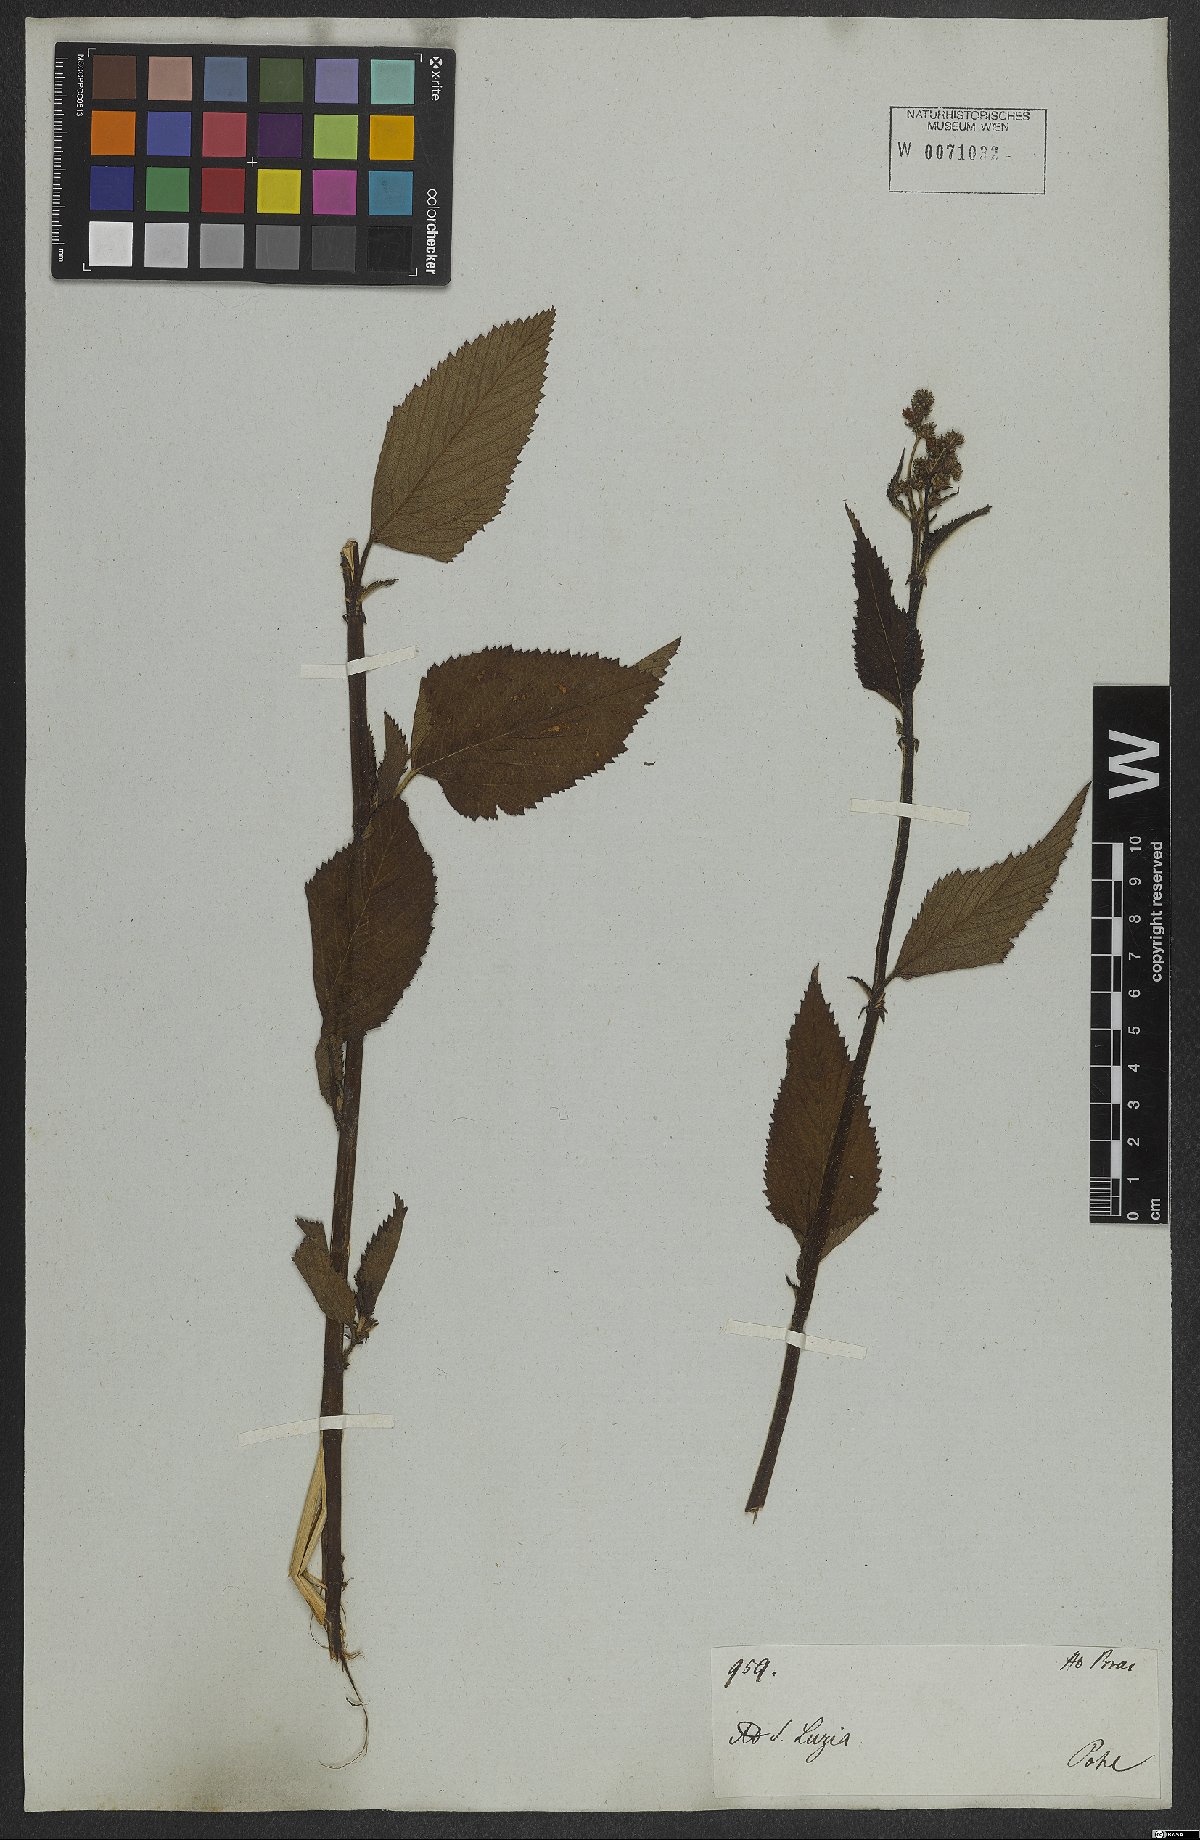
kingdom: Plantae
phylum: Tracheophyta
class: Magnoliopsida
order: Malvales
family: Malvaceae
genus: Melochia
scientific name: Melochia lanceolata
